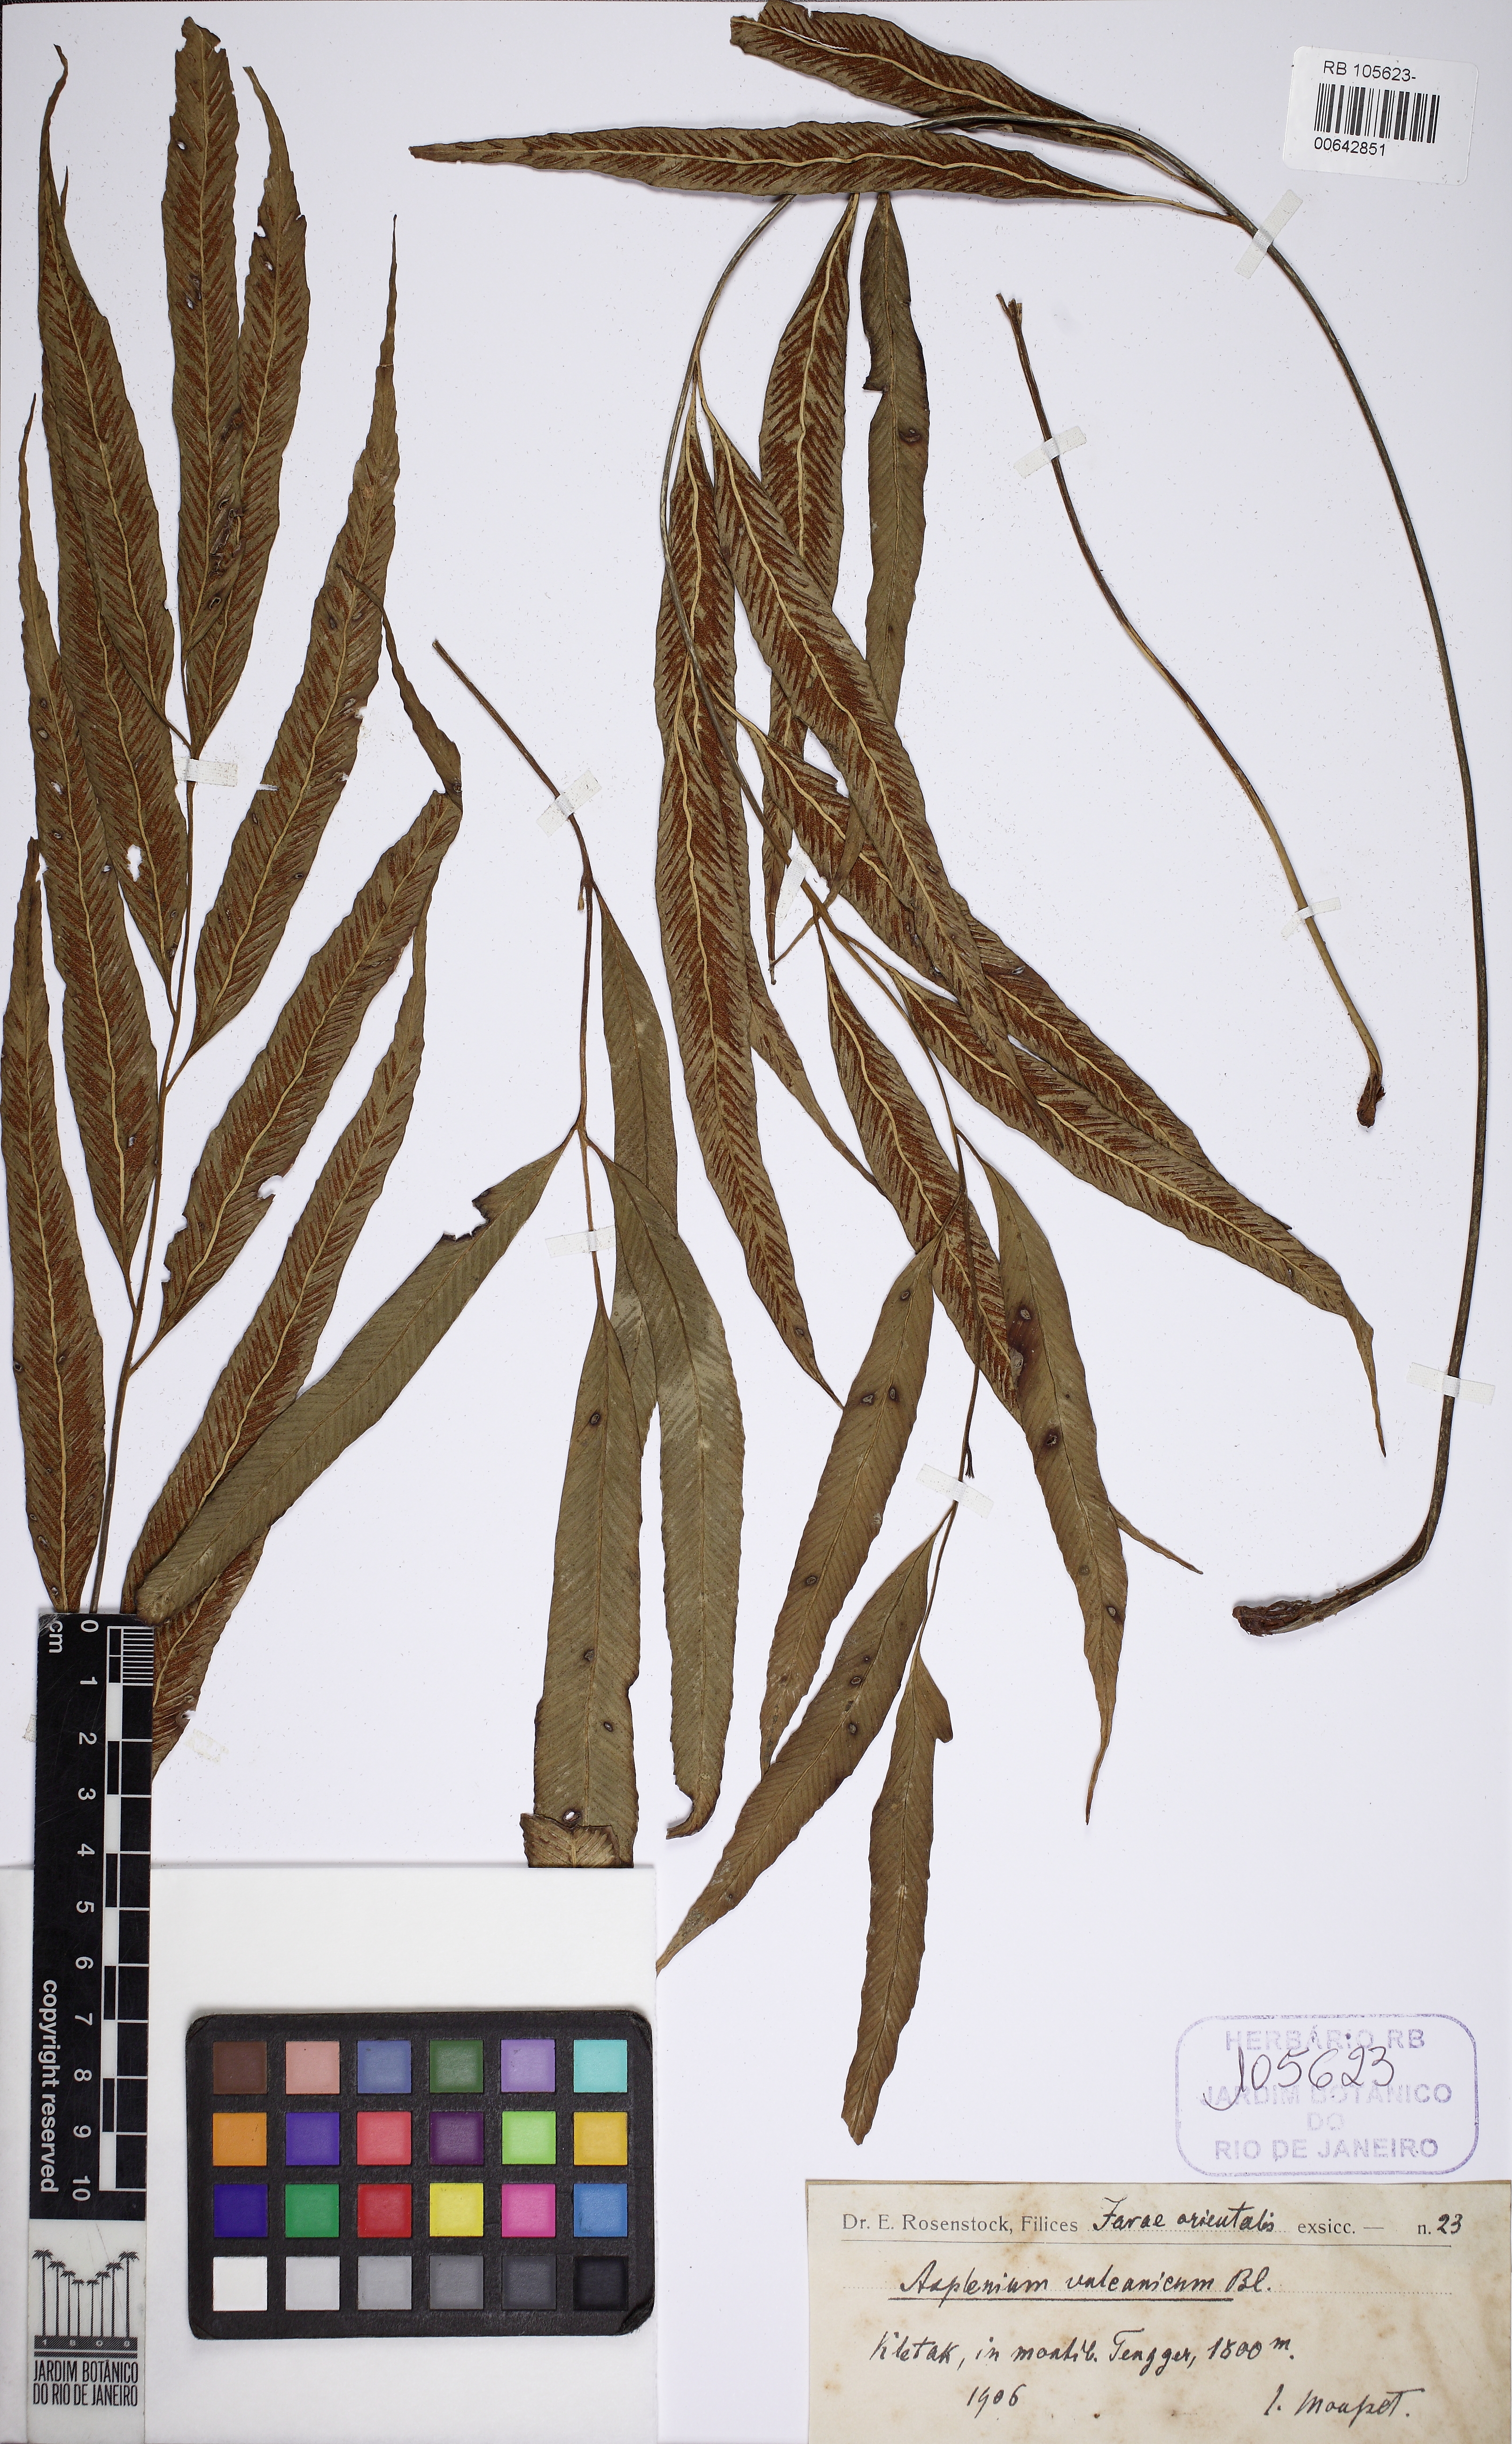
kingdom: Plantae
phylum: Tracheophyta
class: Polypodiopsida
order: Polypodiales
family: Aspleniaceae
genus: Asplenium
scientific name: Asplenium vulcanicum
